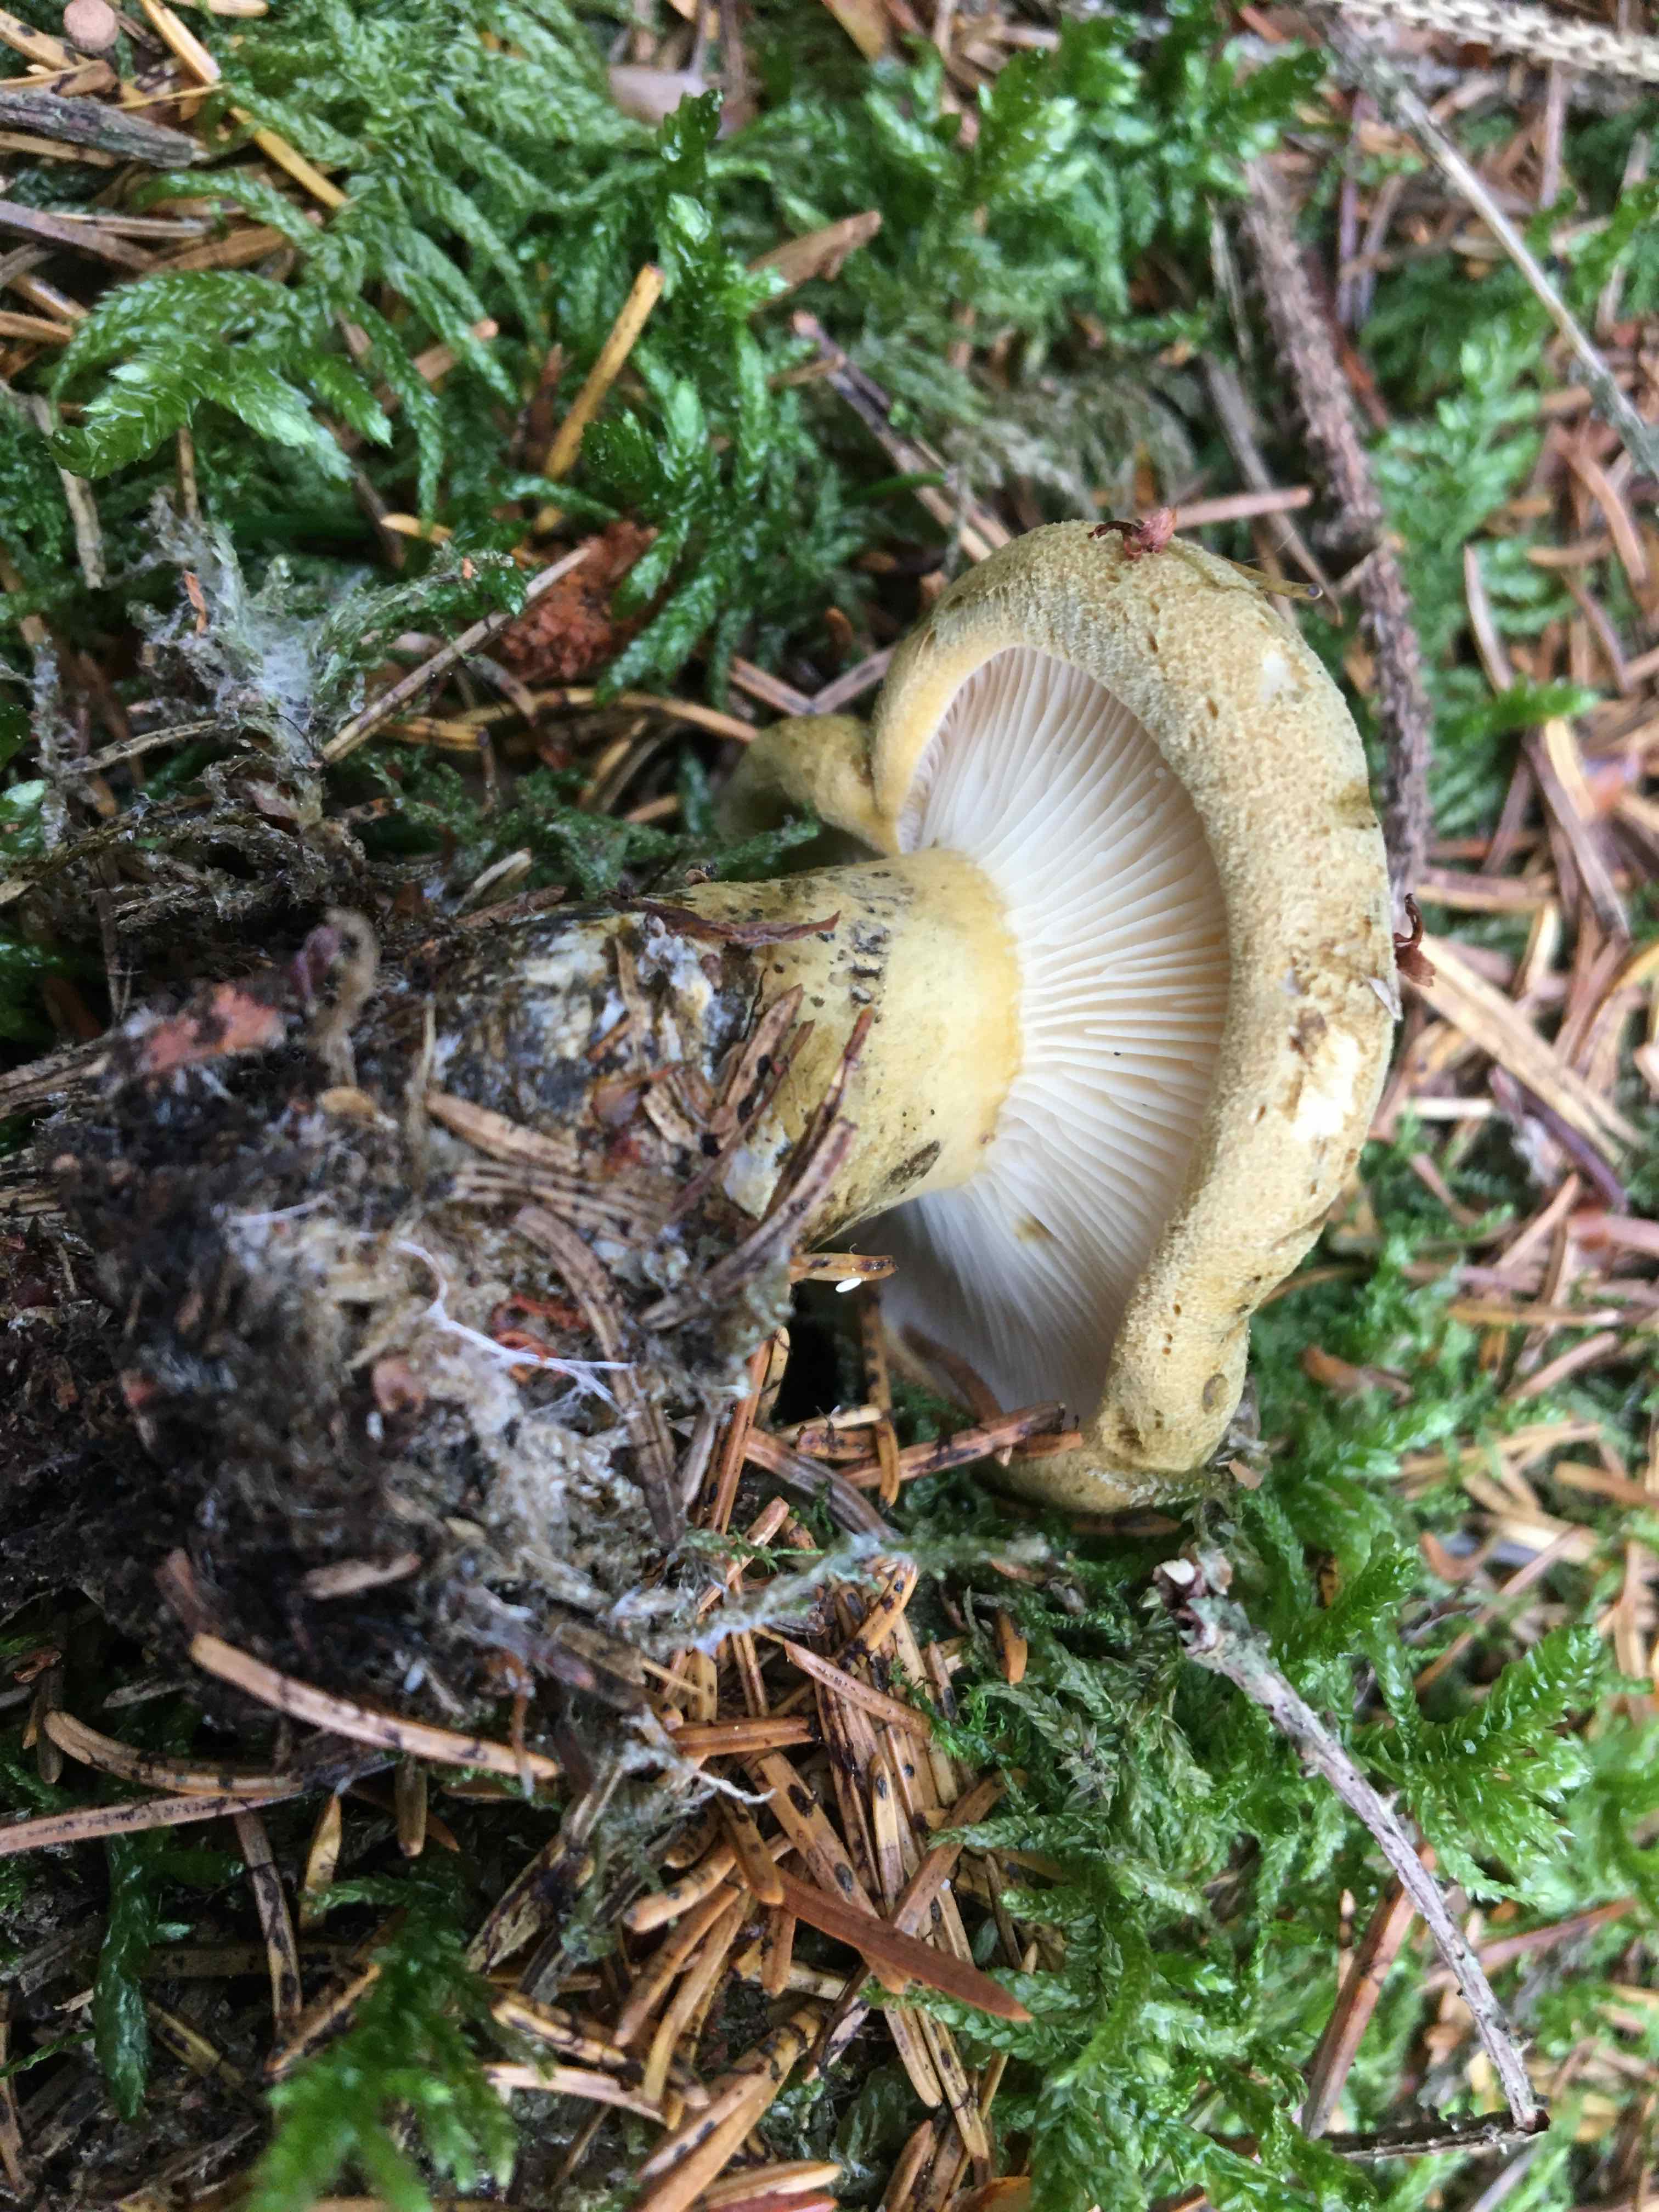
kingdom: Fungi
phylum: Basidiomycota
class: Agaricomycetes
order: Russulales
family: Russulaceae
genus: Lactarius
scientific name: Lactarius necator
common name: manddraber-mælkehat
